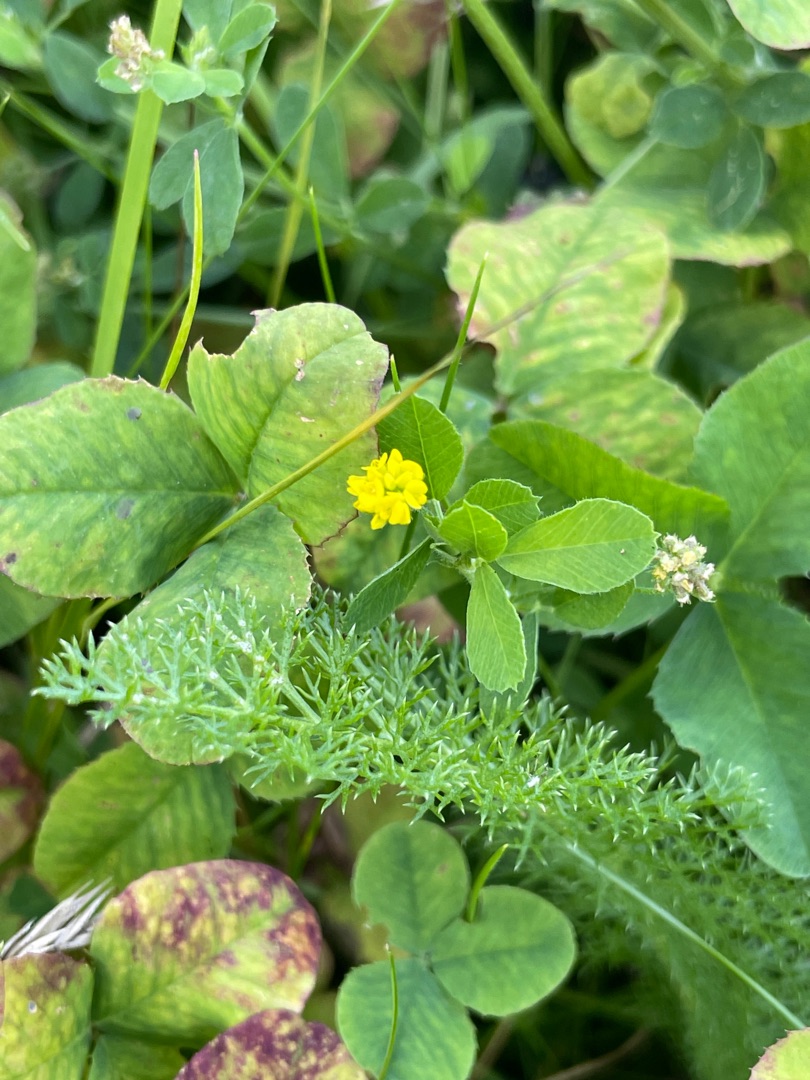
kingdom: Plantae
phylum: Tracheophyta
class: Magnoliopsida
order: Fabales
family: Fabaceae
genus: Medicago
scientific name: Medicago lupulina
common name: Humle-sneglebælg
